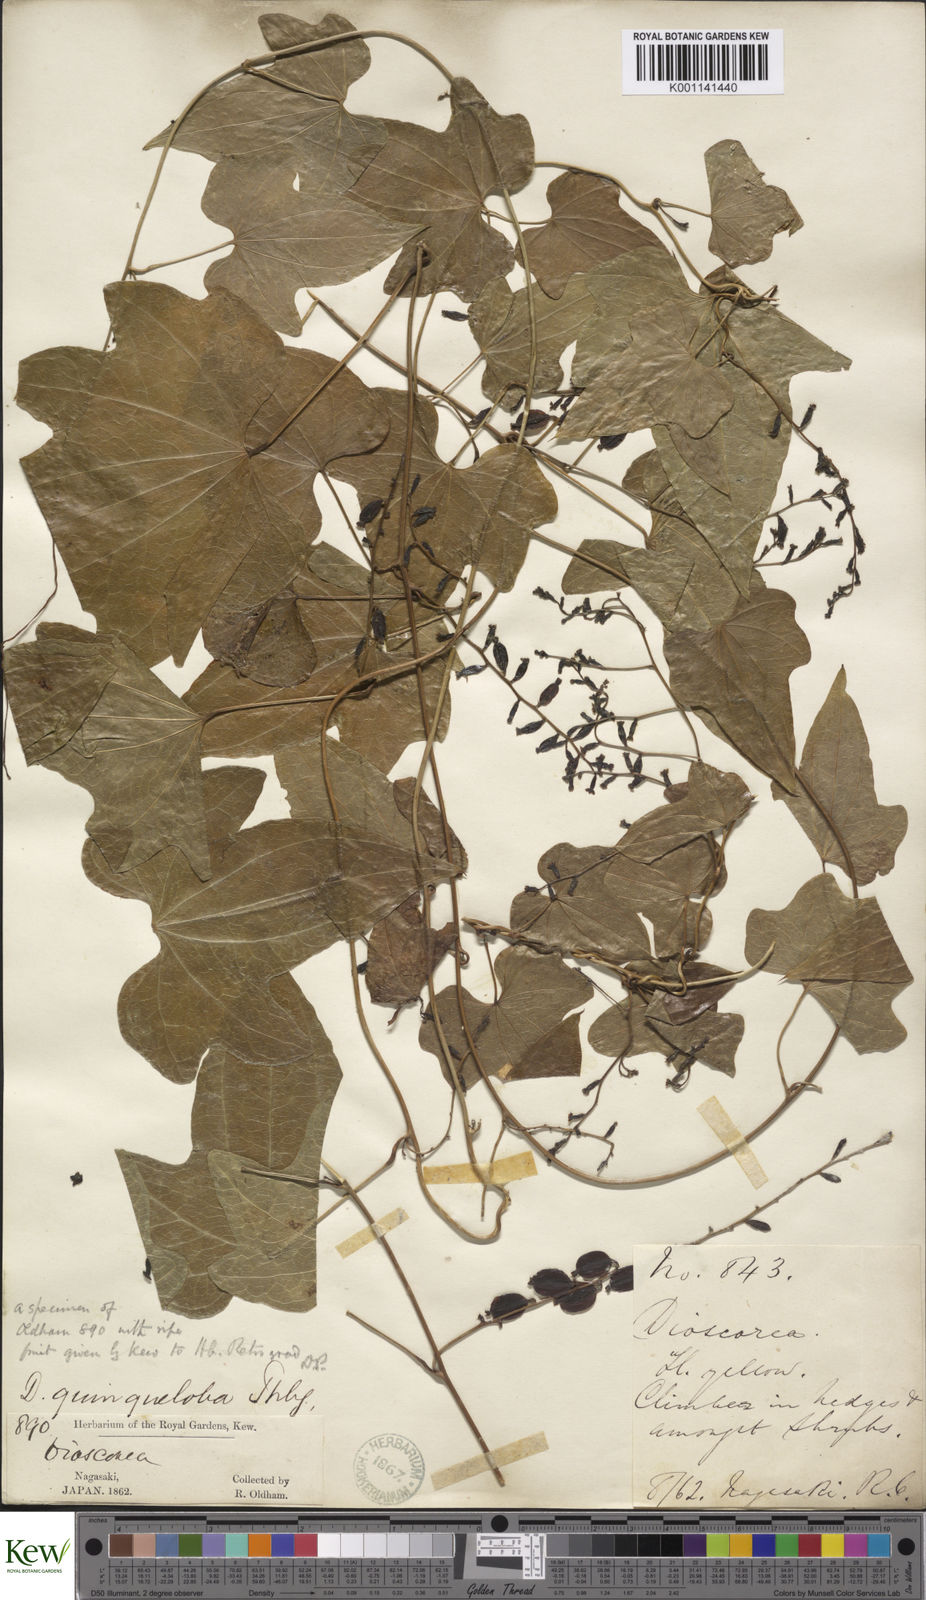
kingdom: Plantae
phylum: Tracheophyta
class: Liliopsida
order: Dioscoreales
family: Dioscoreaceae
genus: Dioscorea
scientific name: Dioscorea quinquelobata
